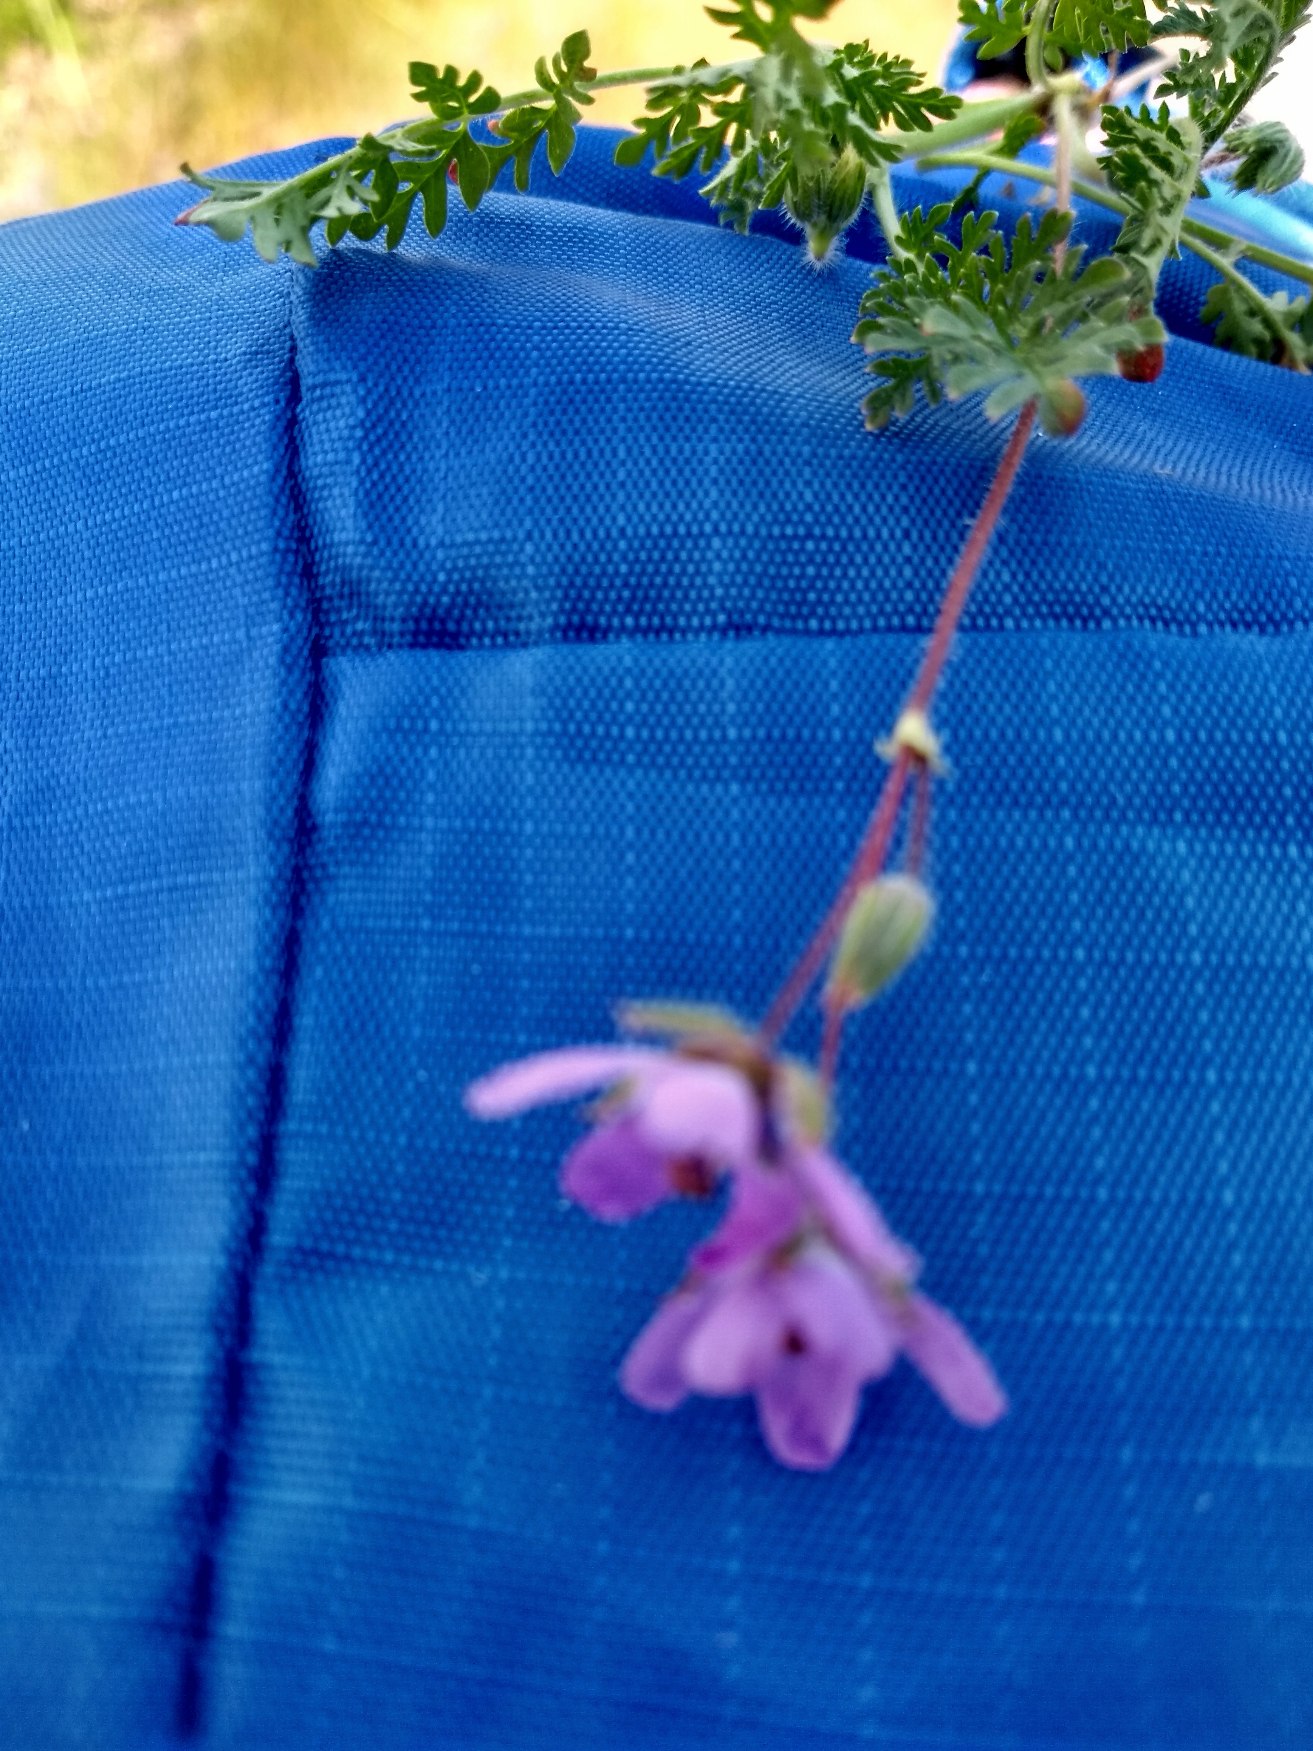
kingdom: Plantae
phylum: Tracheophyta
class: Magnoliopsida
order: Geraniales
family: Geraniaceae
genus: Erodium
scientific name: Erodium cicutarium
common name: Hejrenæb
